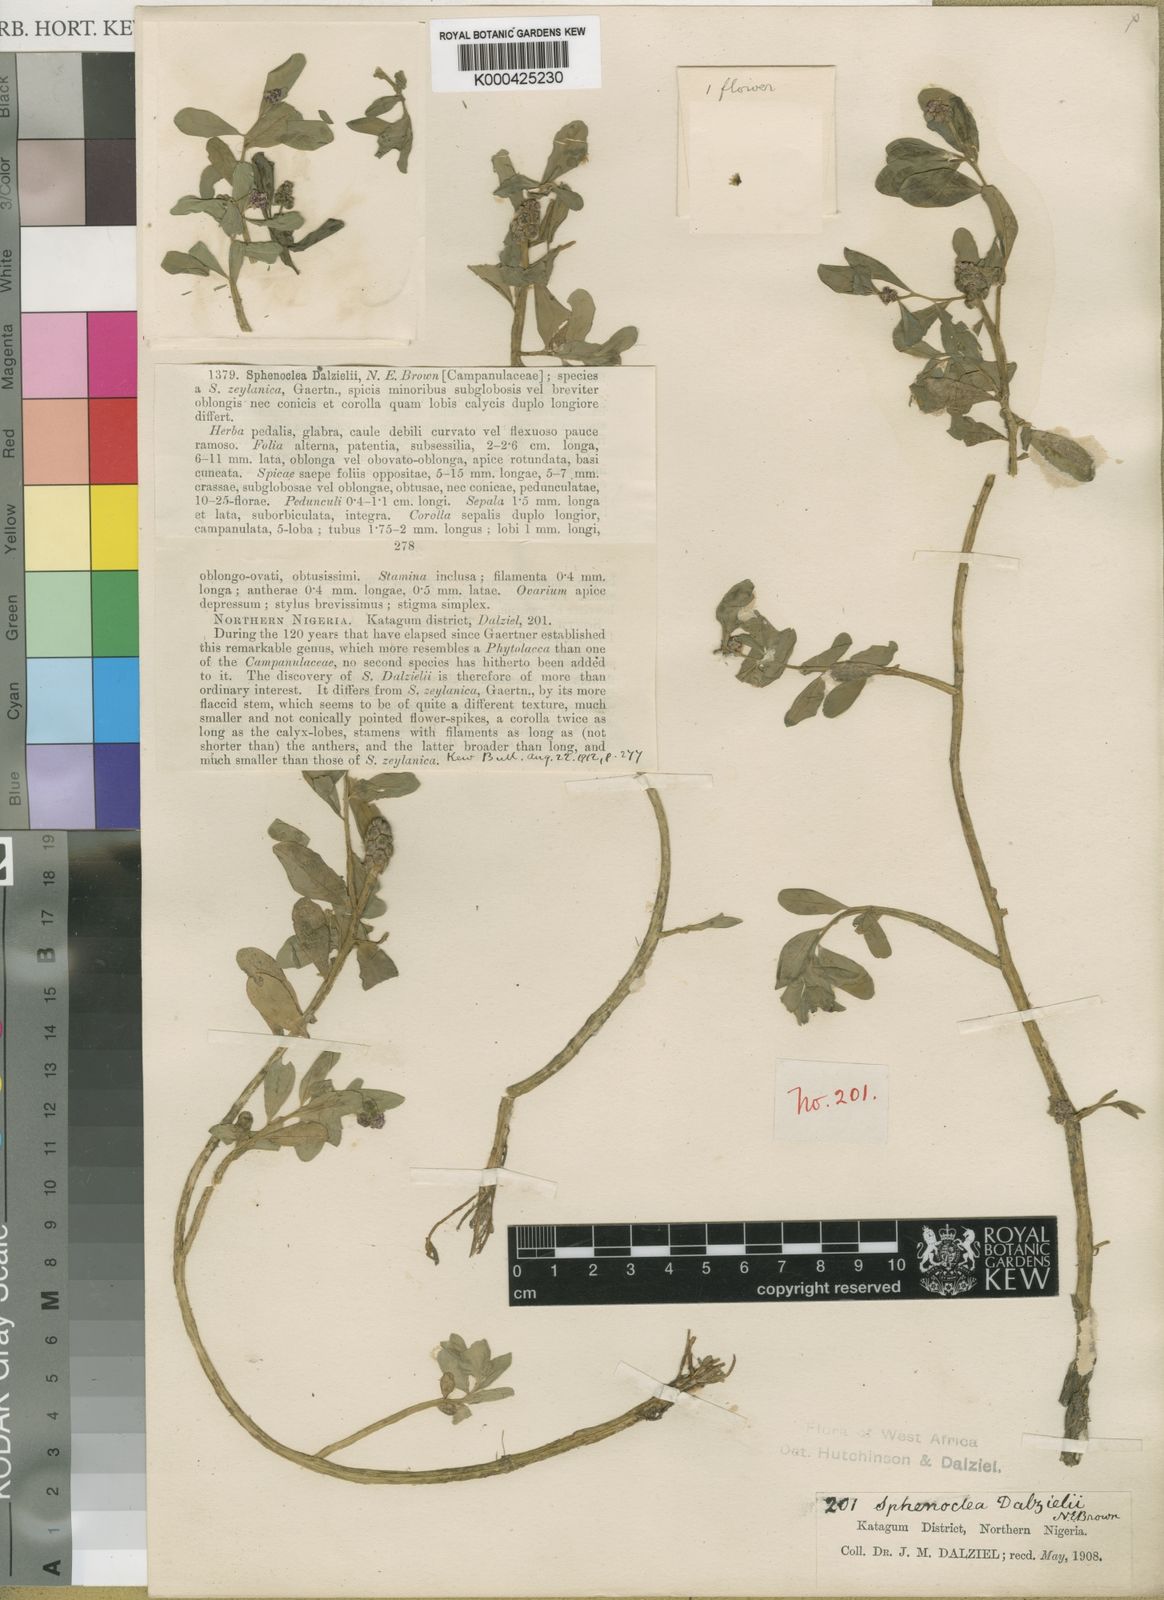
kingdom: Plantae
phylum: Tracheophyta
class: Magnoliopsida
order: Solanales
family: Sphenocleaceae
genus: Sphenoclea
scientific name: Sphenoclea dalzielii
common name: Wedgewort
